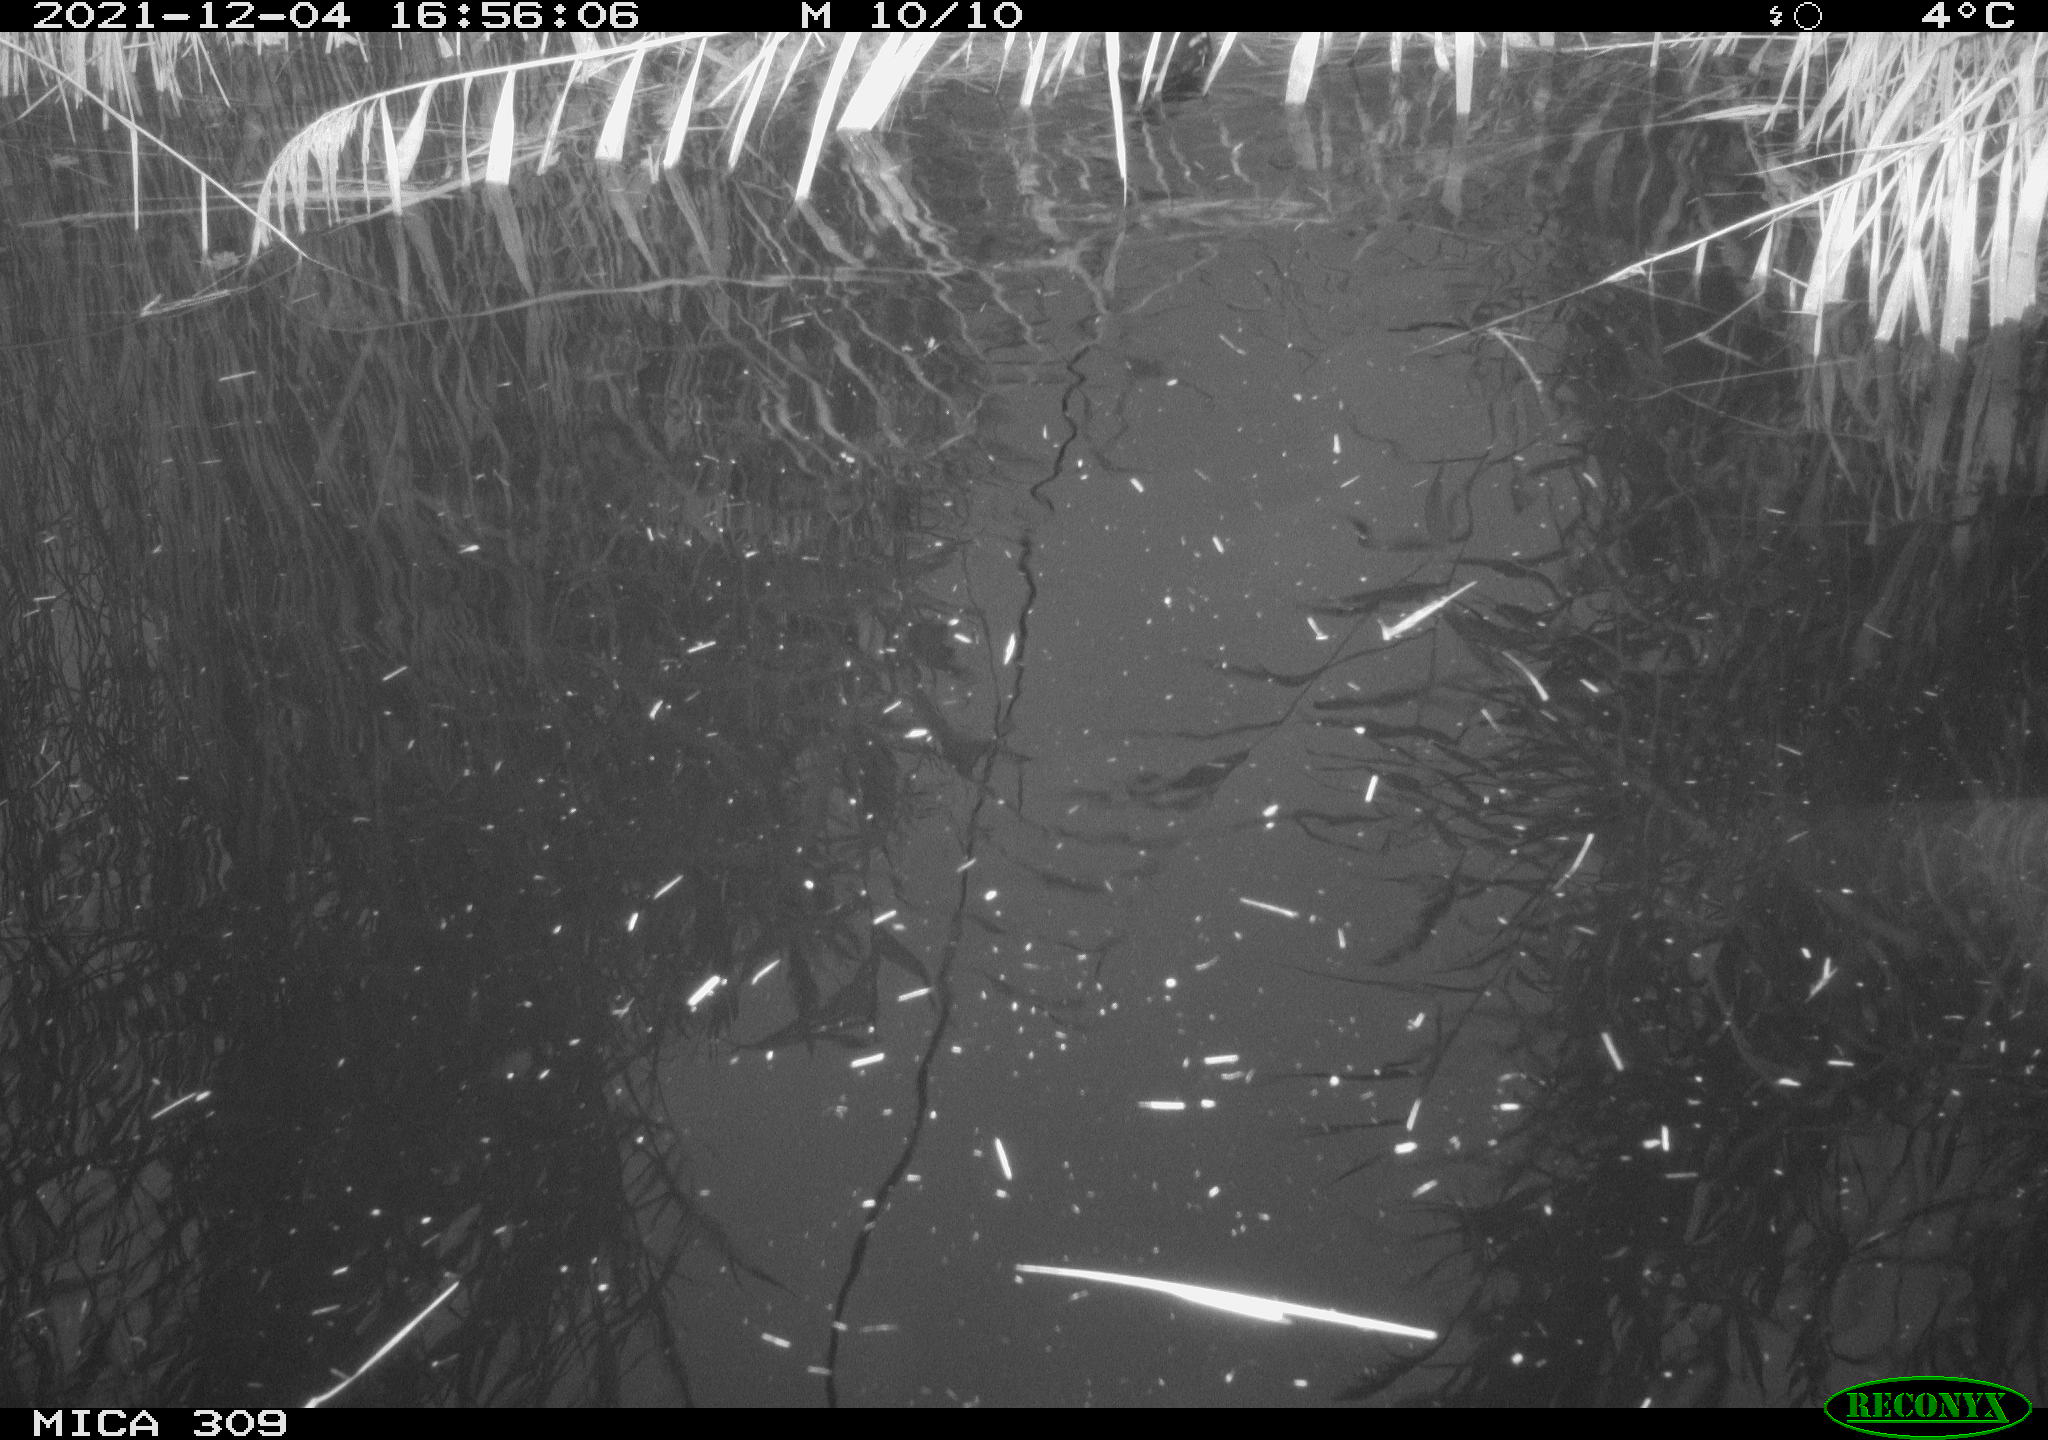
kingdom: Animalia
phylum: Chordata
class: Aves
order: Gruiformes
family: Rallidae
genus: Gallinula
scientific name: Gallinula chloropus
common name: Common moorhen
